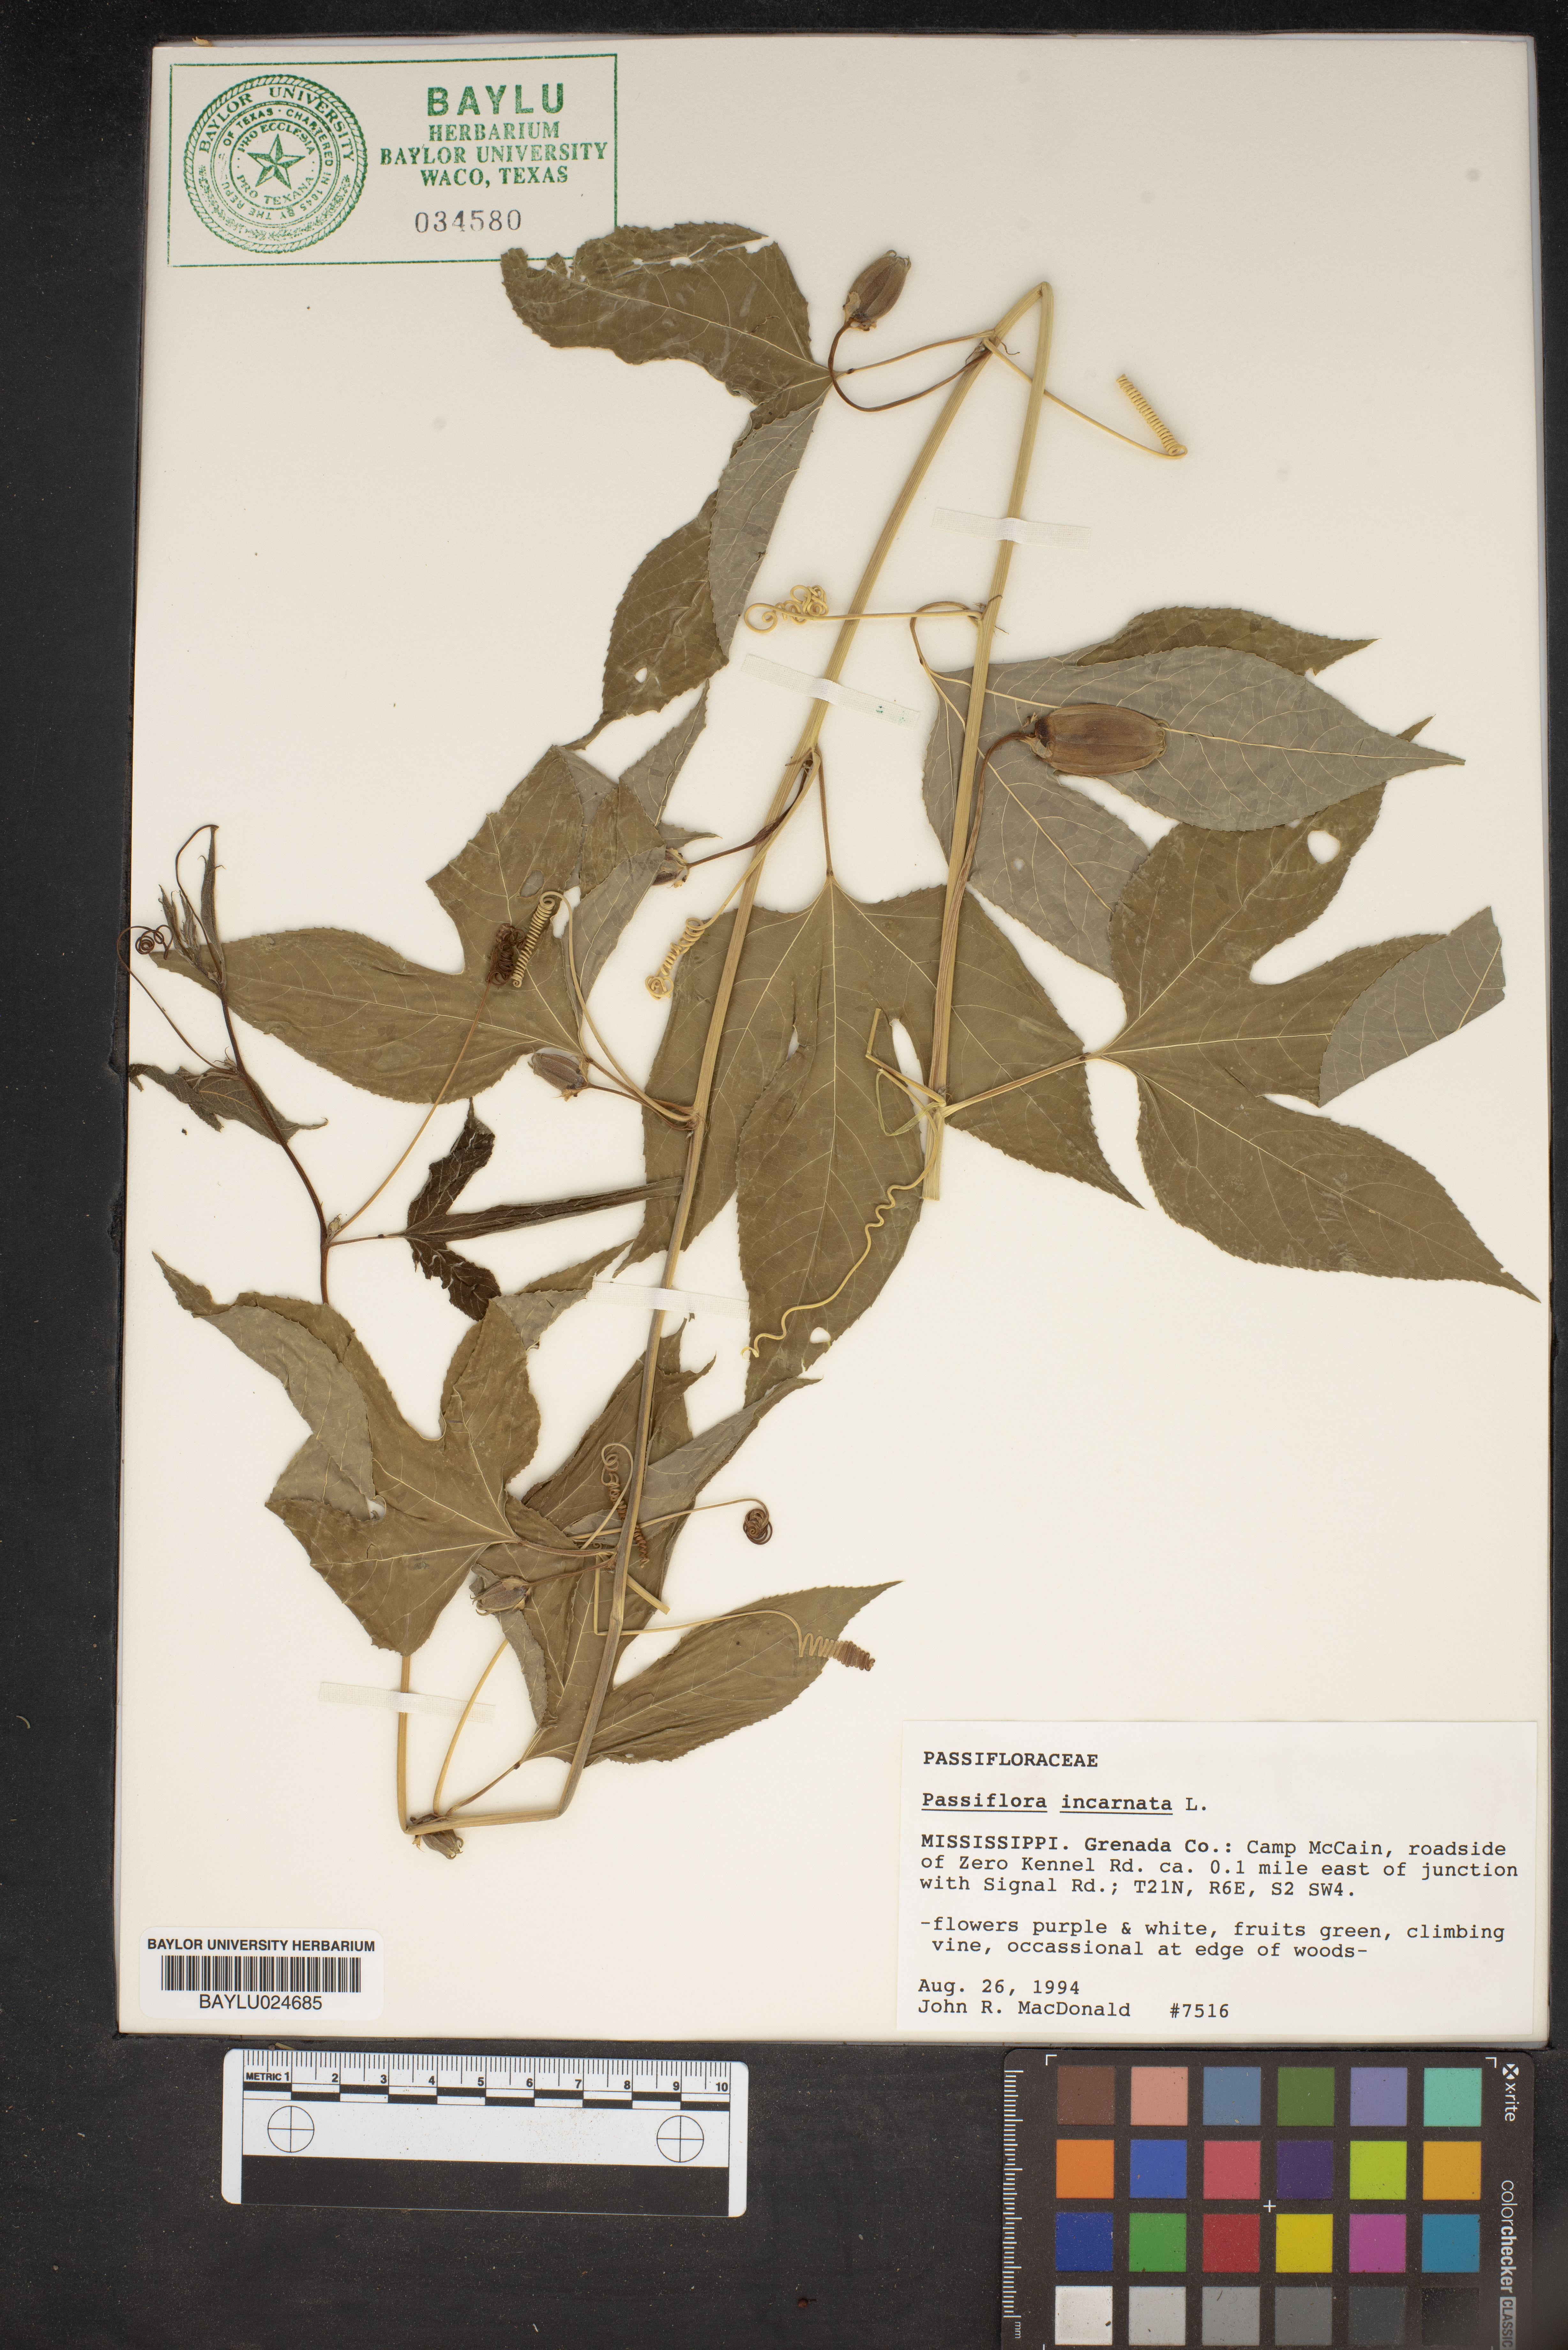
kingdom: Plantae
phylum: Tracheophyta
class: Magnoliopsida
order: Malpighiales
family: Passifloraceae
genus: Passiflora
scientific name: Passiflora incarnata
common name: Apricot-vine
